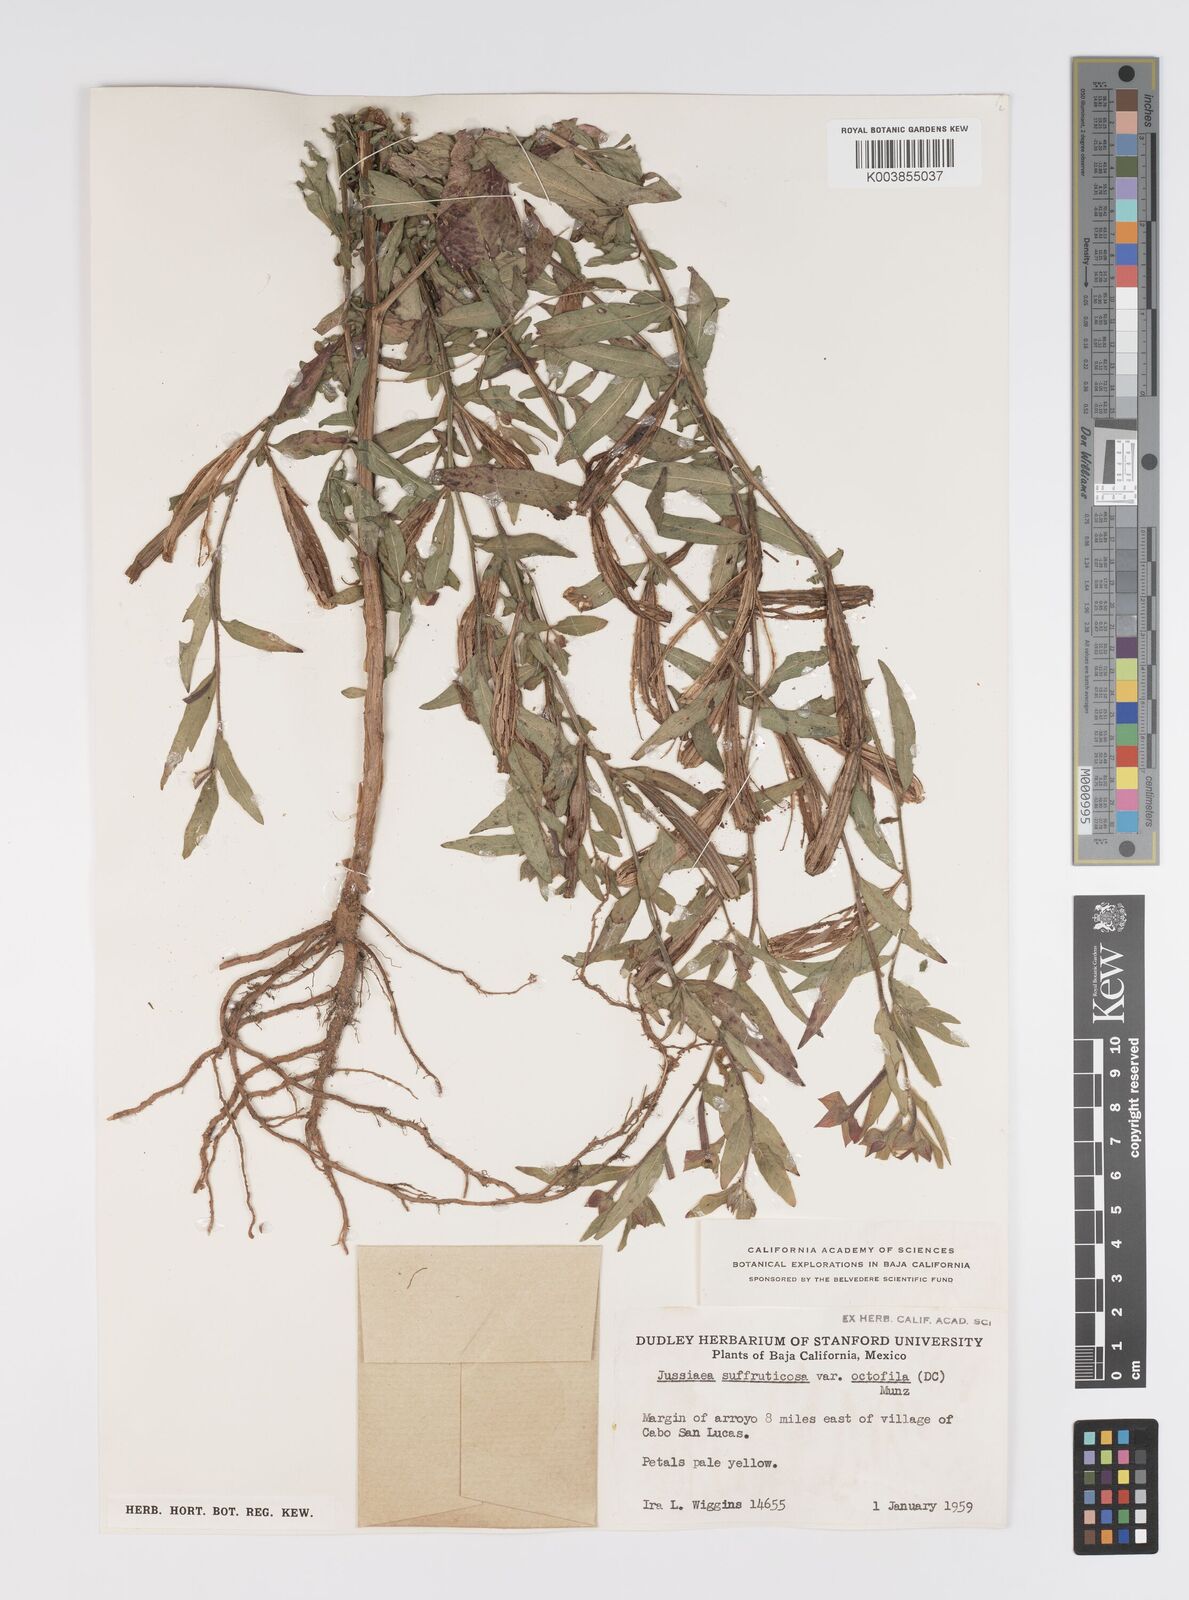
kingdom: Plantae
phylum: Tracheophyta
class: Magnoliopsida
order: Myrtales
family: Onagraceae
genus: Ludwigia
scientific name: Ludwigia octovalvis
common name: Water-primrose
